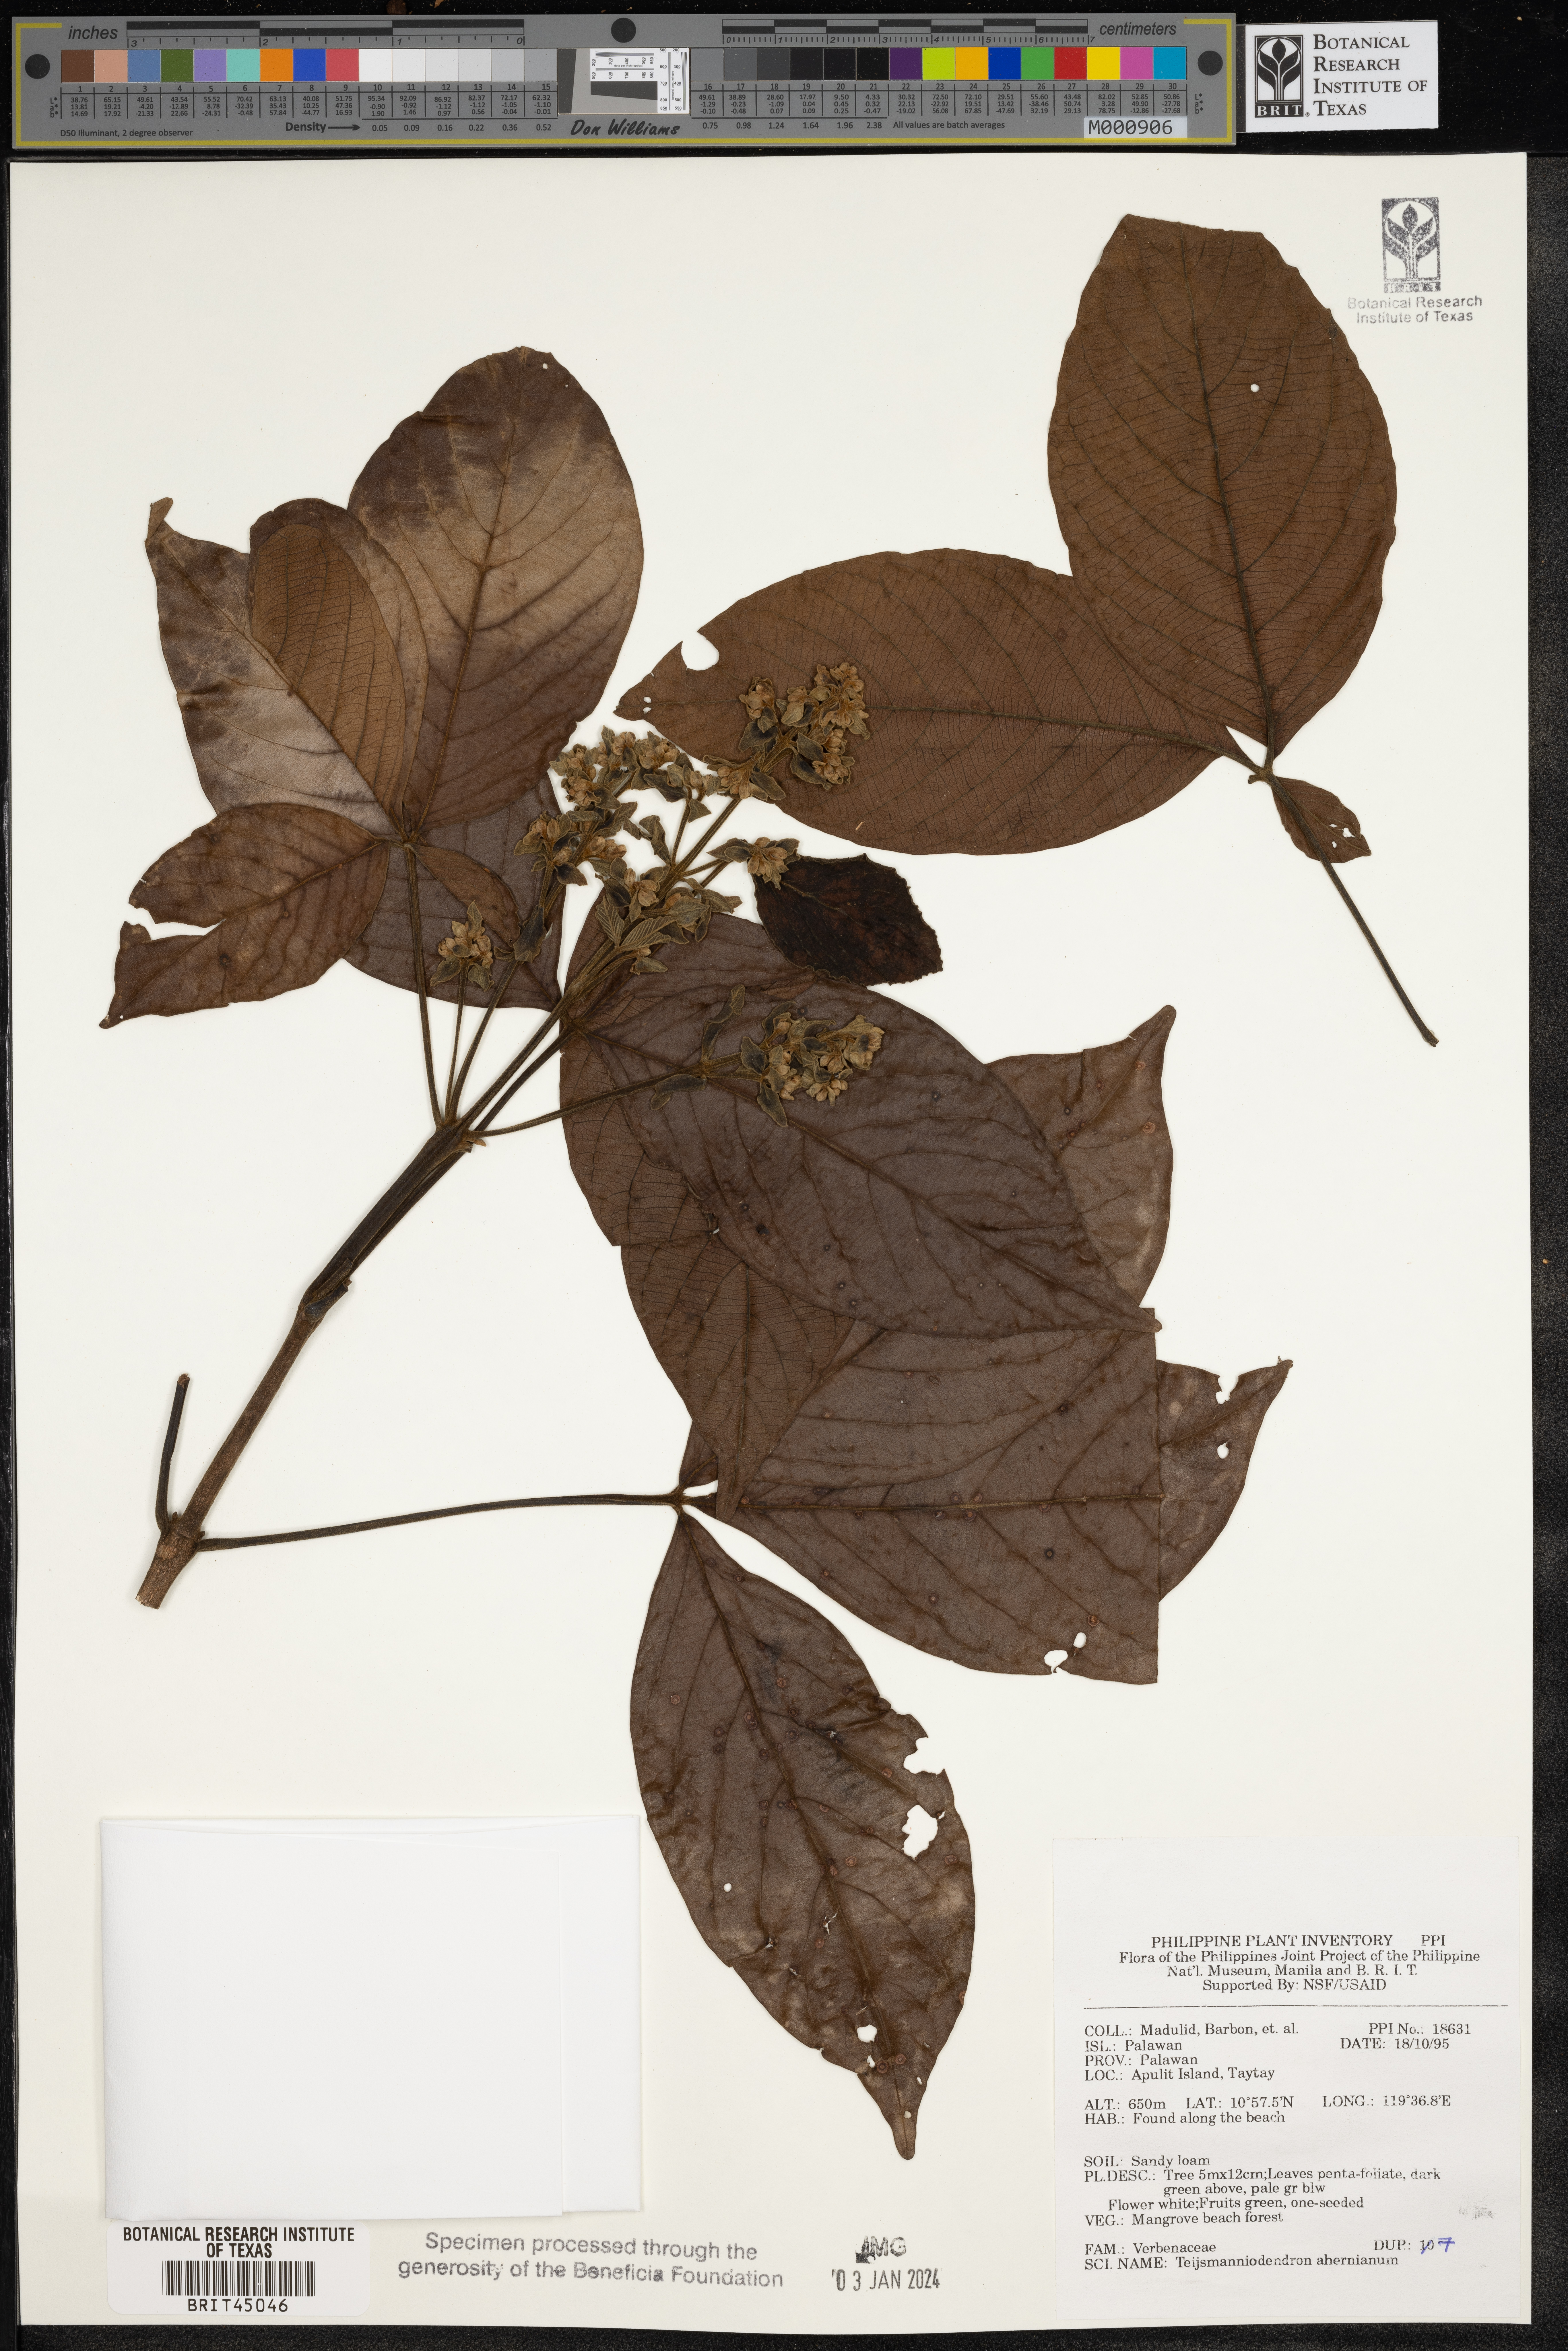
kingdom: Plantae
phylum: Tracheophyta
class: Magnoliopsida
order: Lamiales
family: Lamiaceae
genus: Teijsmanniodendron
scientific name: Teijsmanniodendron ahernianum
